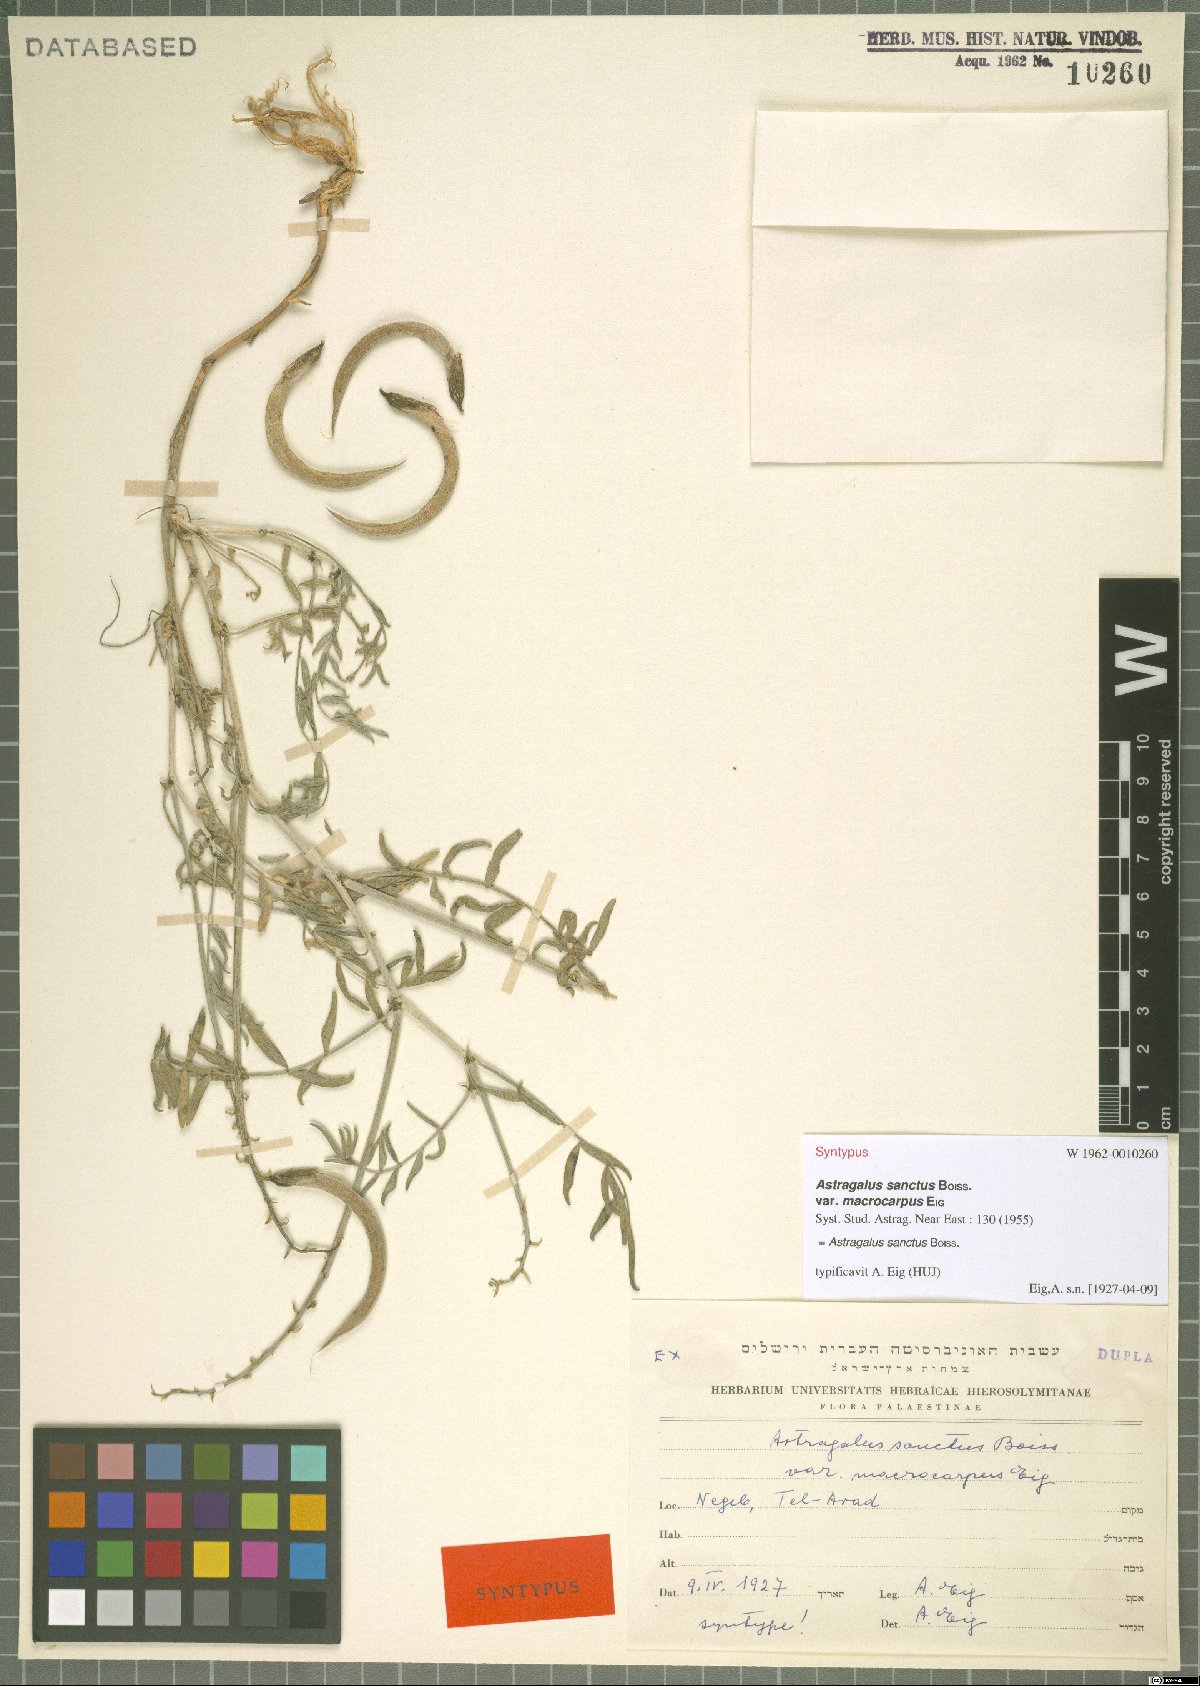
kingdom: Plantae
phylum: Tracheophyta
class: Magnoliopsida
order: Fabales
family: Fabaceae
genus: Astragalus
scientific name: Astragalus sanctus
